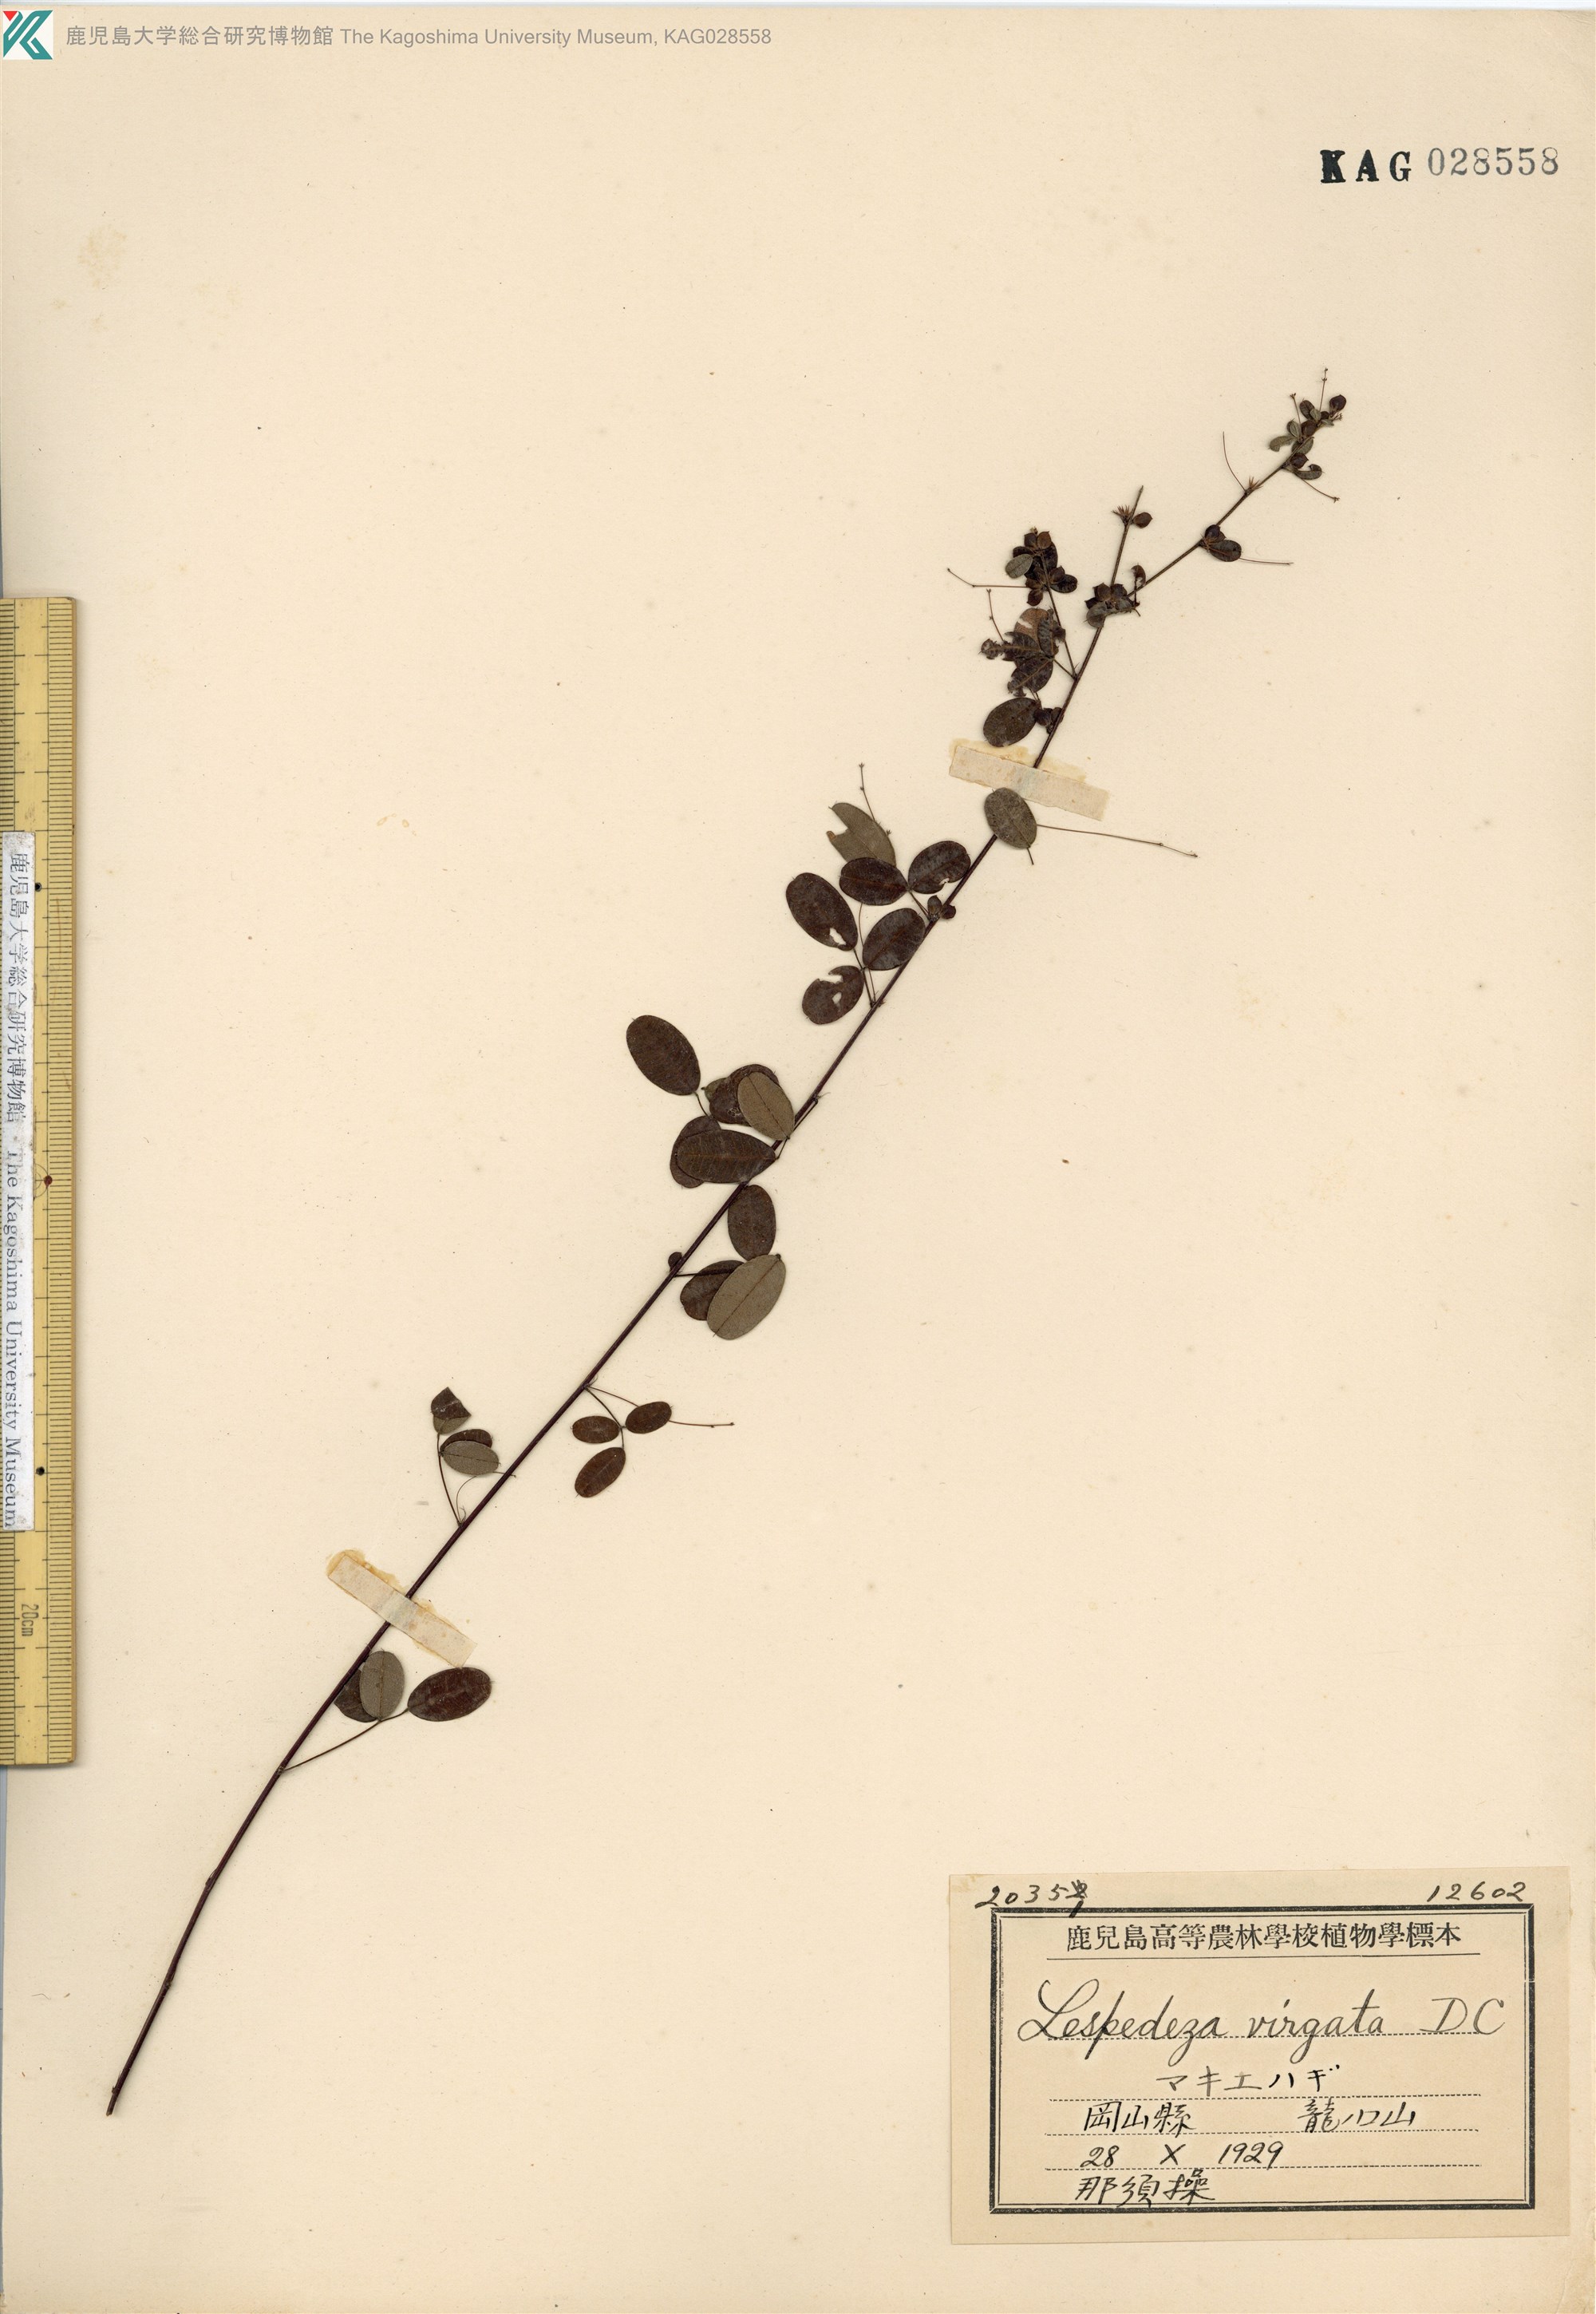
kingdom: Plantae
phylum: Tracheophyta
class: Magnoliopsida
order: Fabales
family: Fabaceae
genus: Lespedeza
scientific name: Lespedeza virgata
